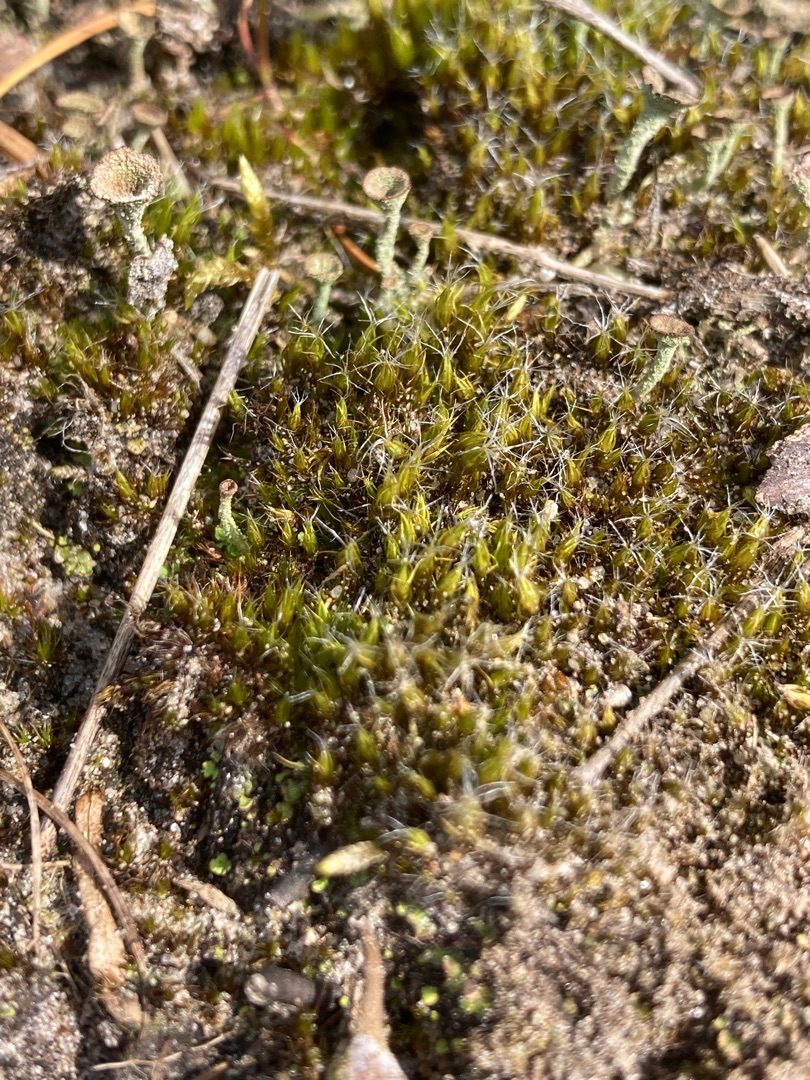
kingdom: Plantae
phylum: Bryophyta
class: Bryopsida
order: Dicranales
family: Leucobryaceae
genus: Campylopus
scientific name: Campylopus introflexus
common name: Stjerne-bredribbe
